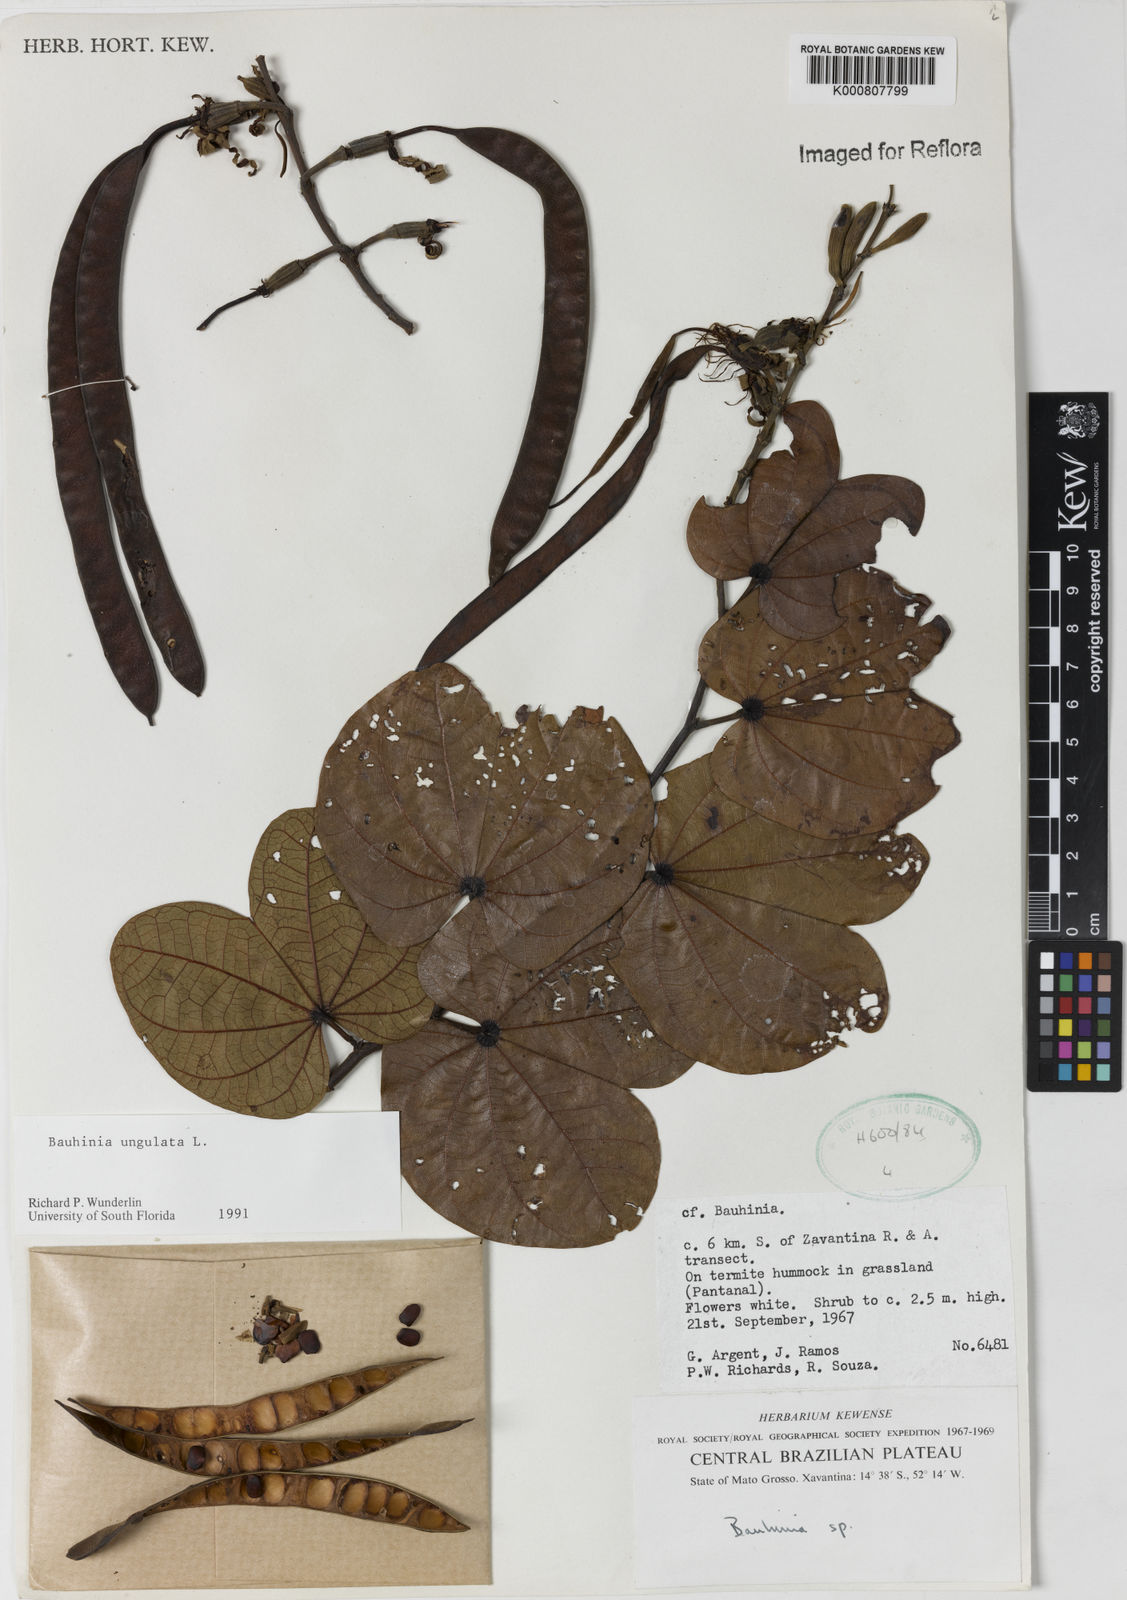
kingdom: Plantae
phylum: Tracheophyta
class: Magnoliopsida
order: Fabales
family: Fabaceae
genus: Bauhinia
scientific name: Bauhinia ungulata
